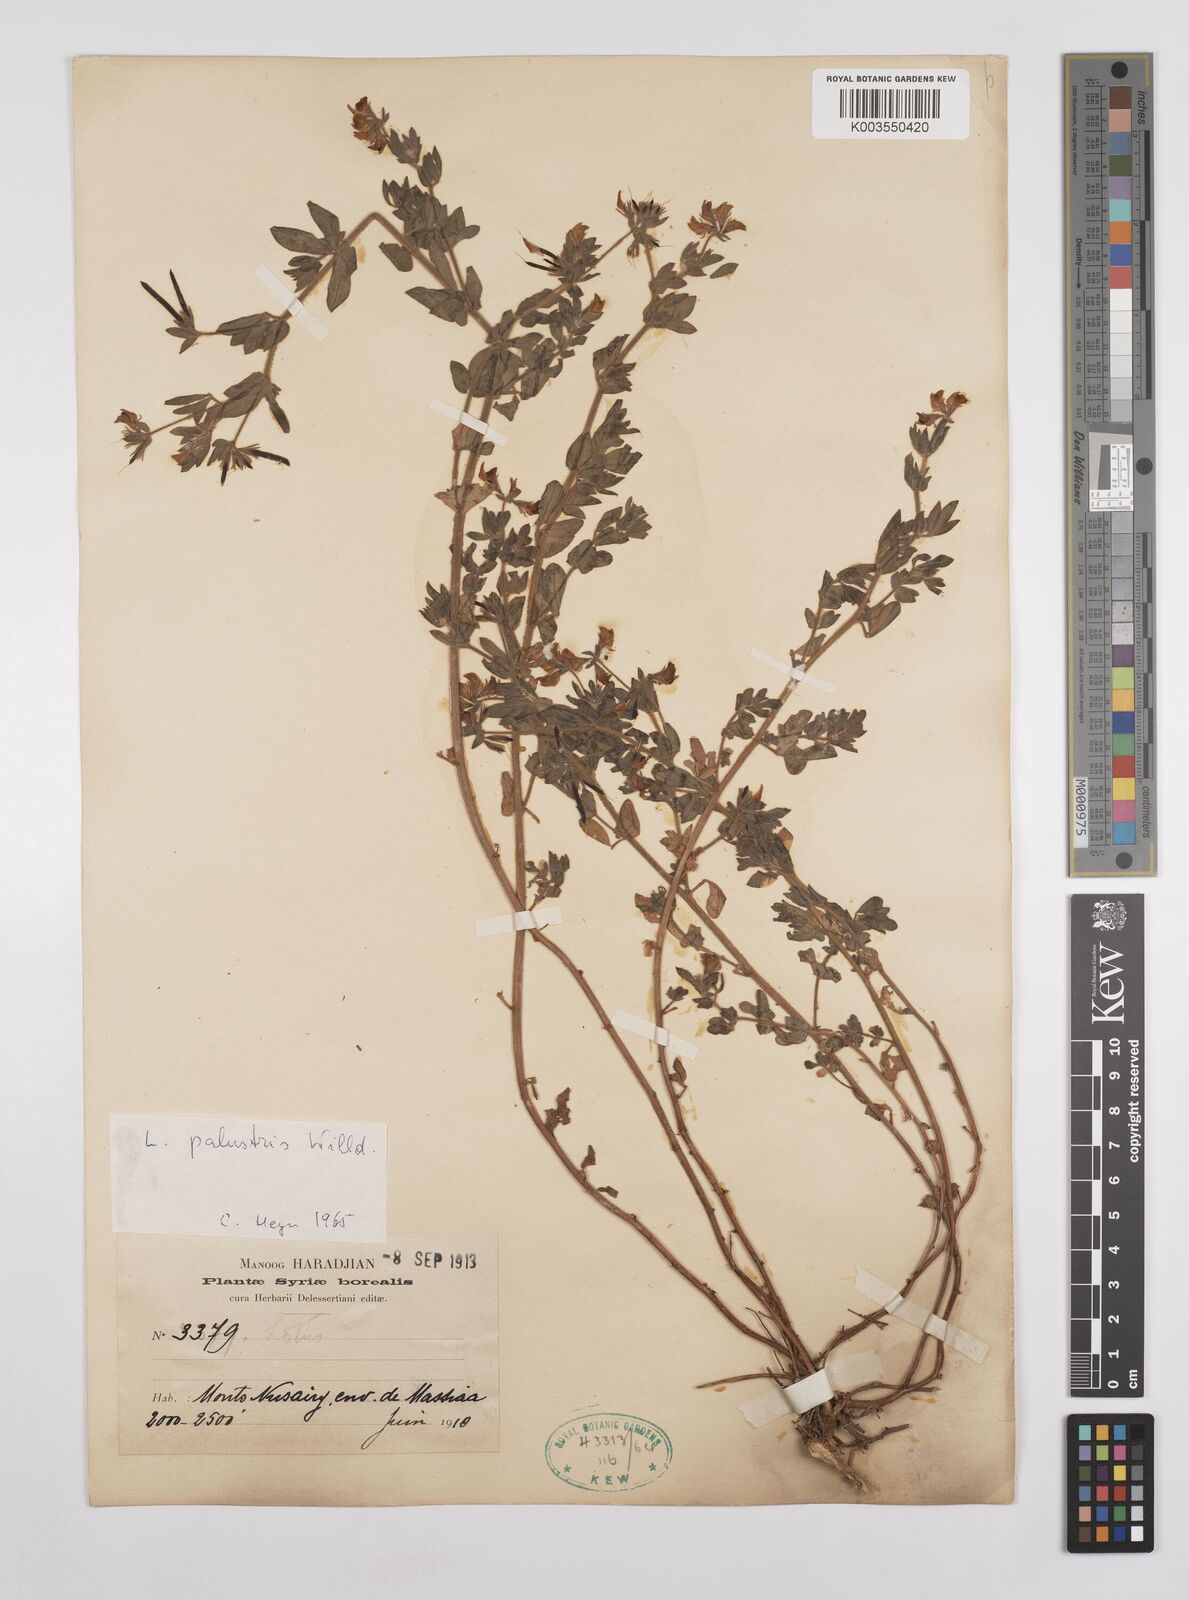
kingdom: Plantae
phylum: Tracheophyta
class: Magnoliopsida
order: Fabales
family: Fabaceae
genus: Lotus
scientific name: Lotus palustris
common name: Large birds-foot trefoil
